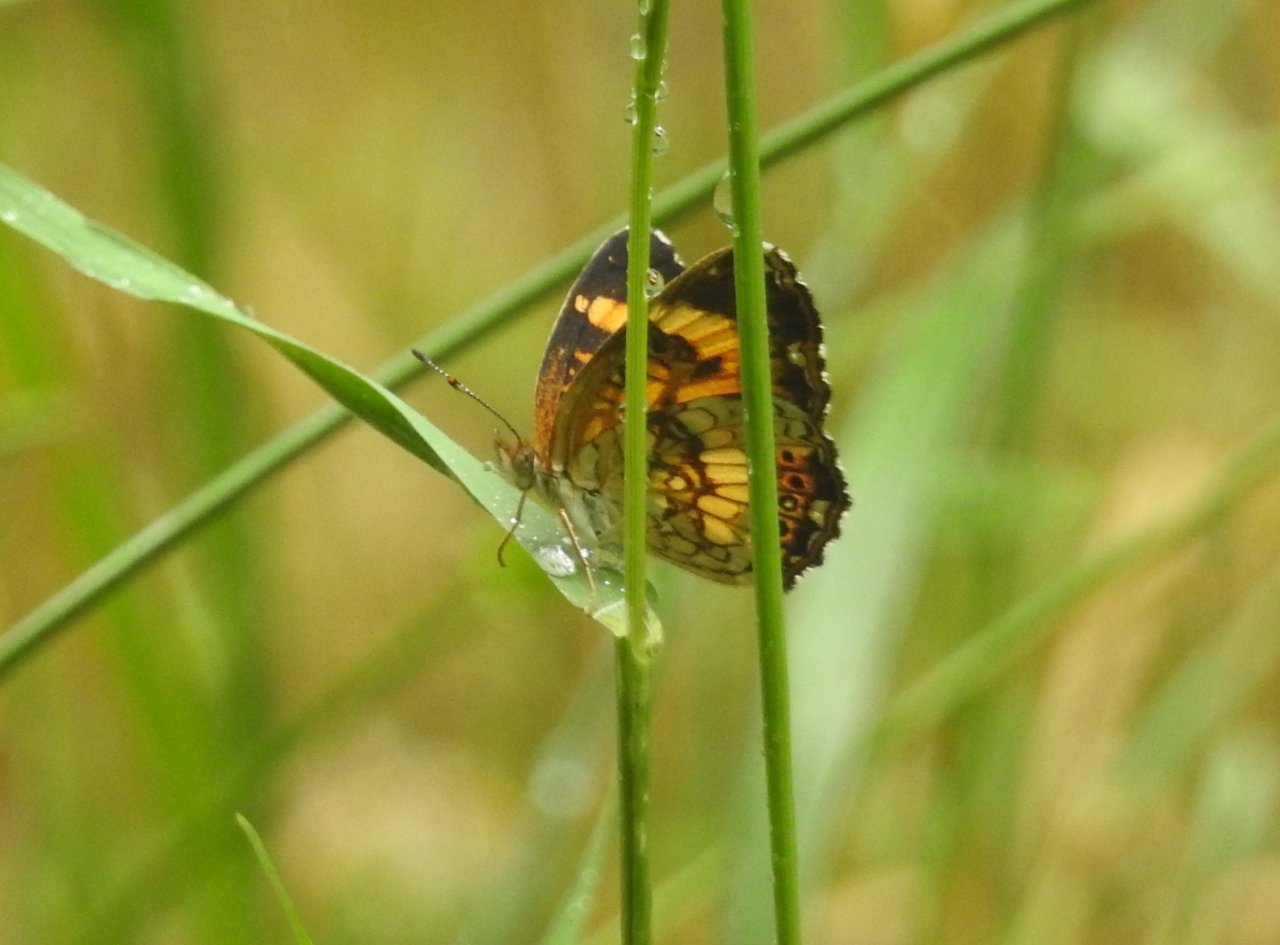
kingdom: Animalia
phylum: Arthropoda
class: Insecta
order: Lepidoptera
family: Nymphalidae
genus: Chlosyne
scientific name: Chlosyne nycteis
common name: Silvery Checkerspot
